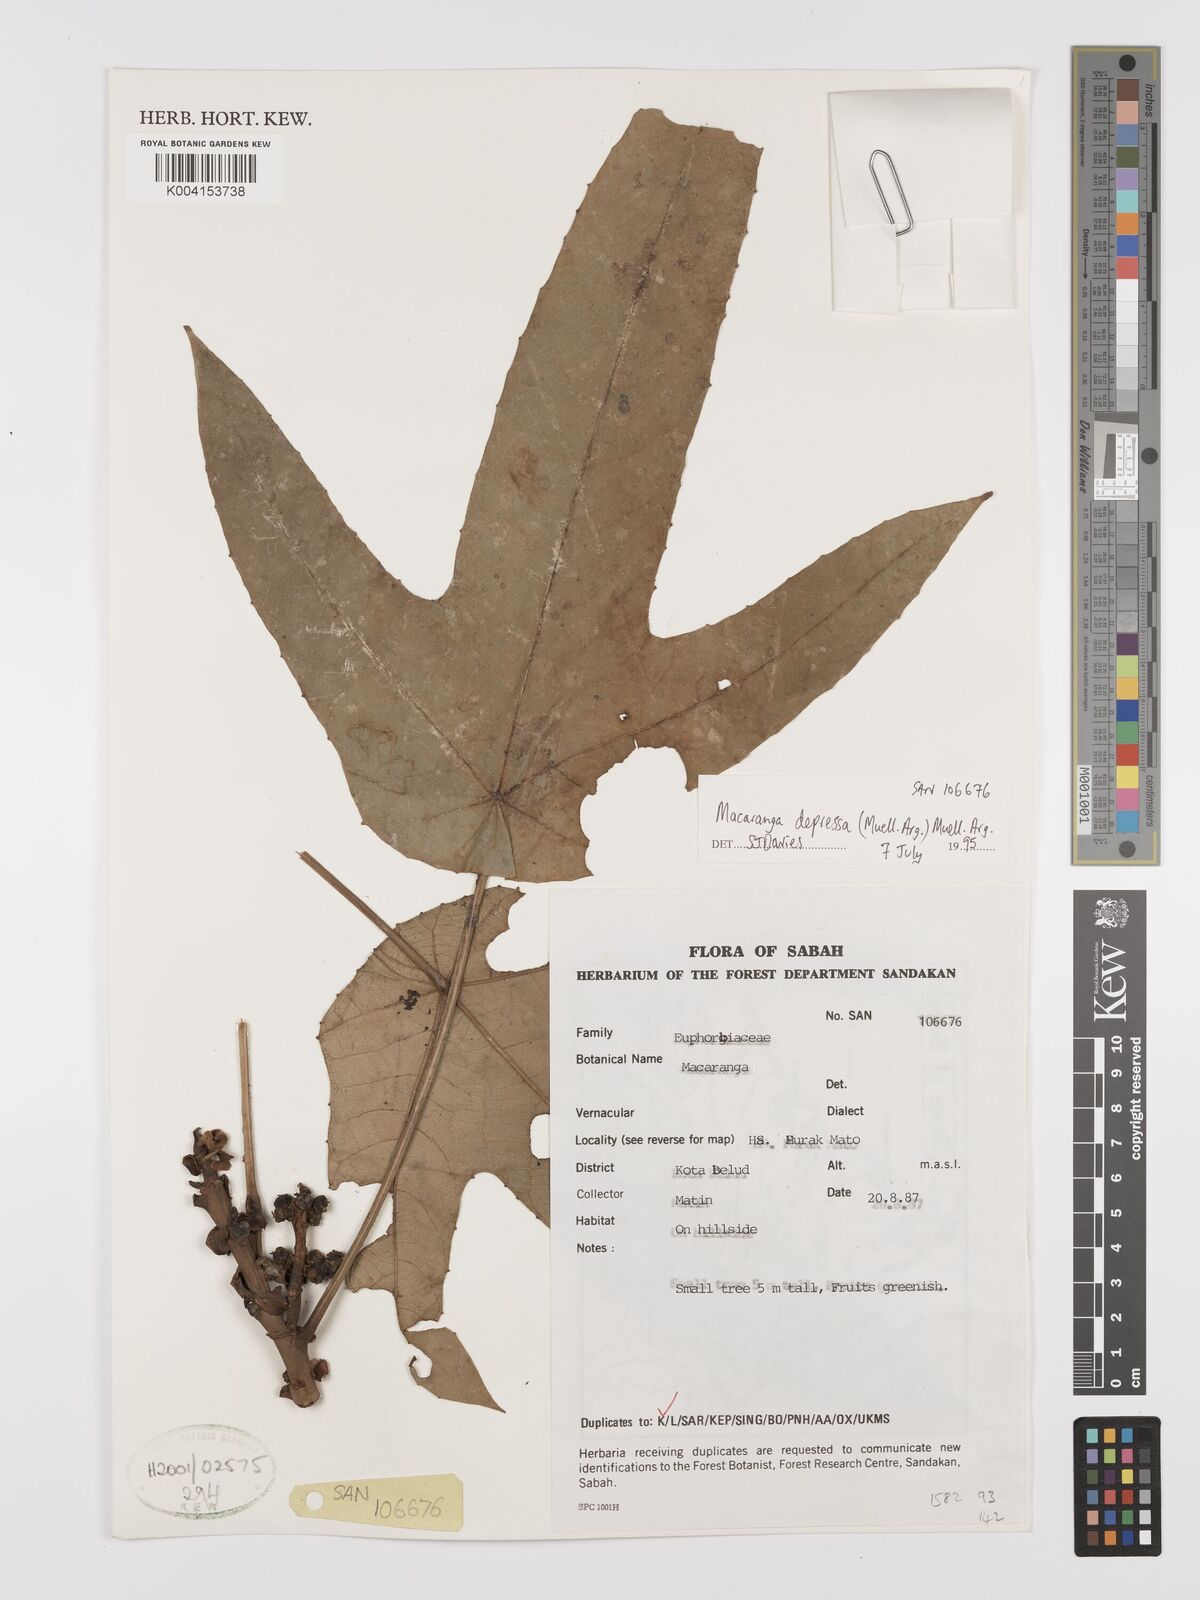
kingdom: Plantae
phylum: Tracheophyta
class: Magnoliopsida
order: Malpighiales
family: Euphorbiaceae
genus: Macaranga
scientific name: Macaranga depressa
